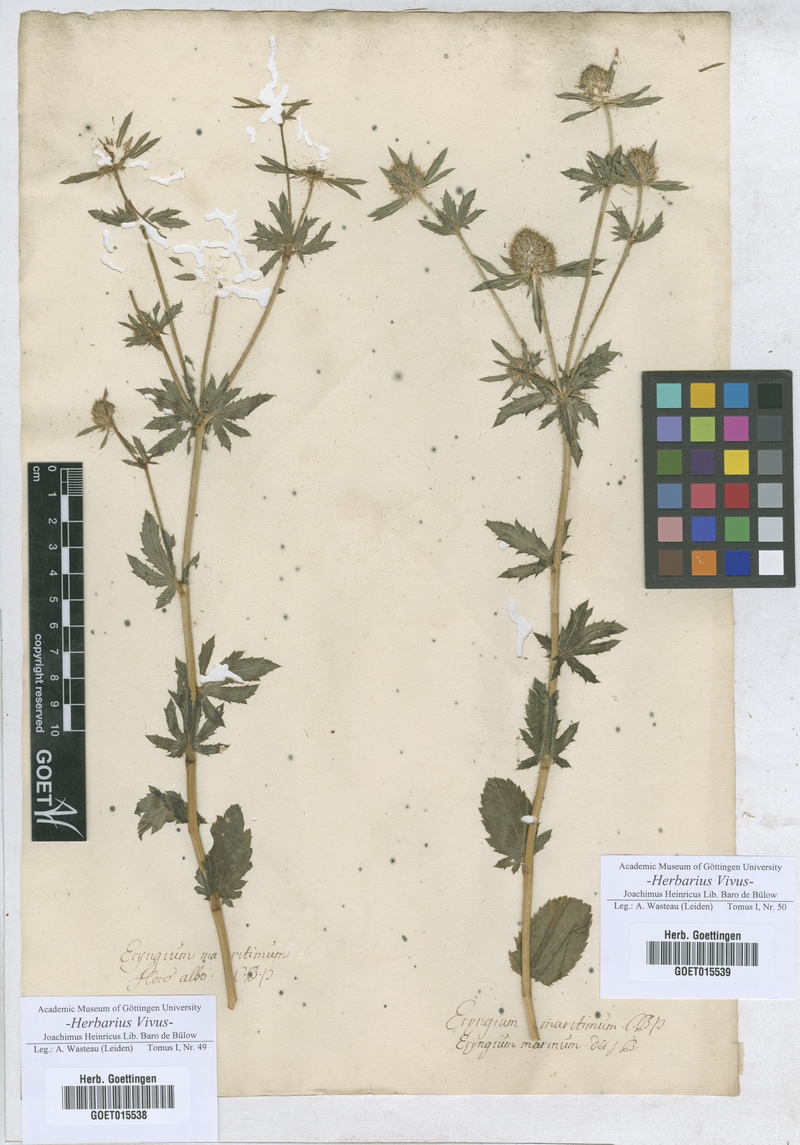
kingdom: Plantae
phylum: Tracheophyta
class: Magnoliopsida
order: Apiales
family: Apiaceae
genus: Eryngium
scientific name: Eryngium maritimum
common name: Sea-holly
